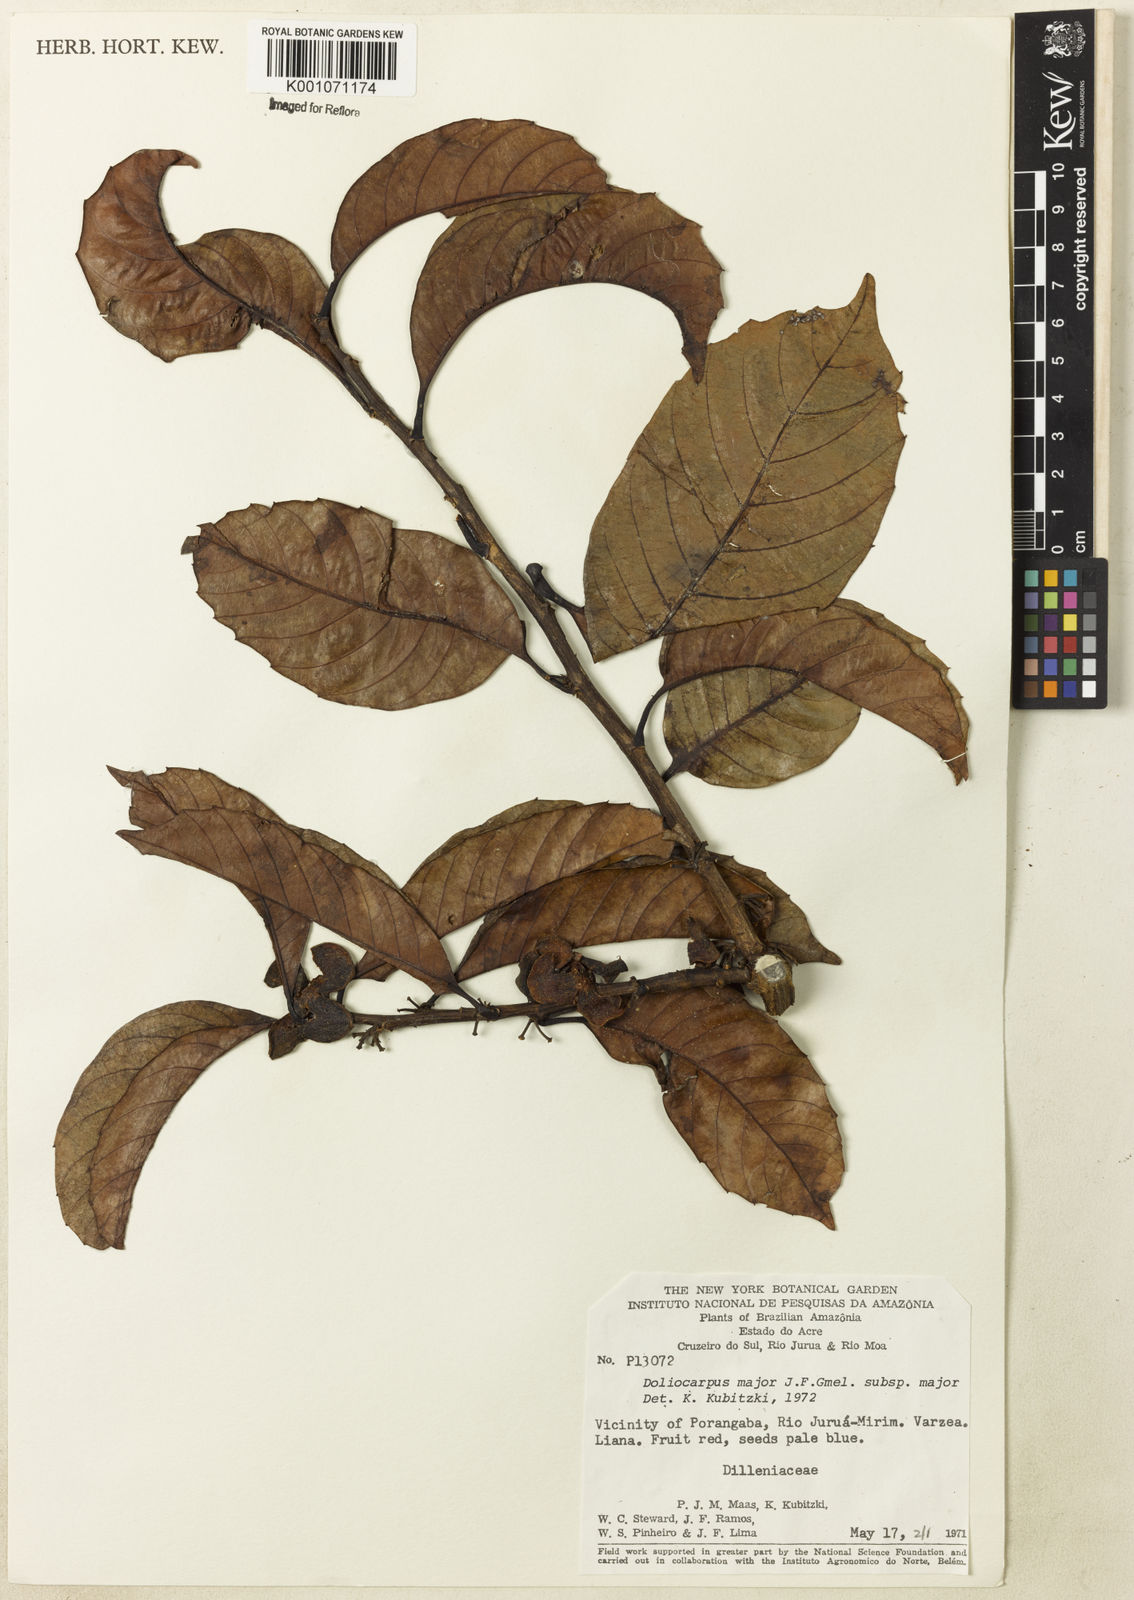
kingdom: Plantae
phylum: Tracheophyta
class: Magnoliopsida
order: Dilleniales
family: Dilleniaceae
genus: Doliocarpus
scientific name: Doliocarpus major
